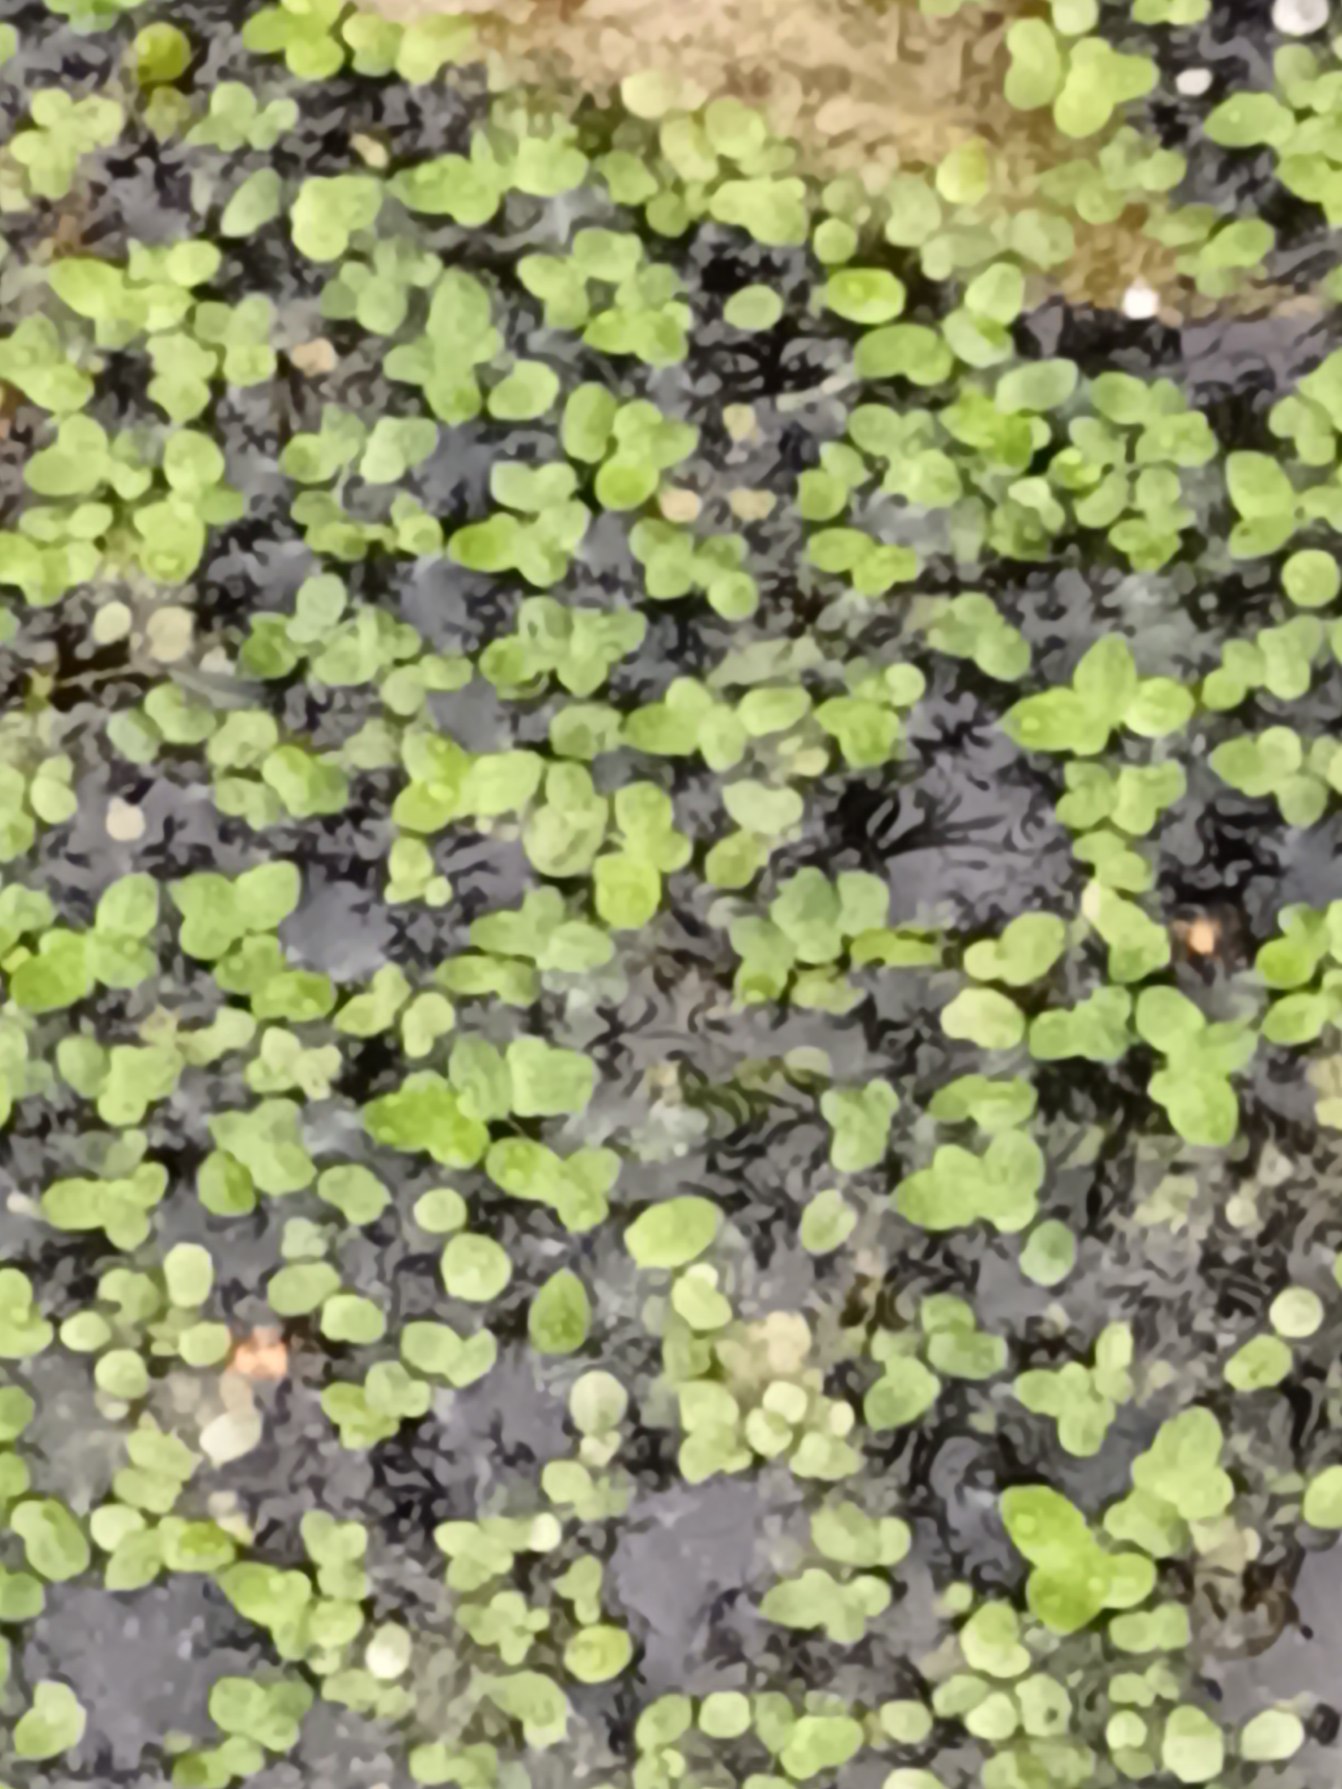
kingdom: Plantae
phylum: Tracheophyta
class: Liliopsida
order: Alismatales
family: Araceae
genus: Lemna
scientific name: Lemna minor
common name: Liden andemad
